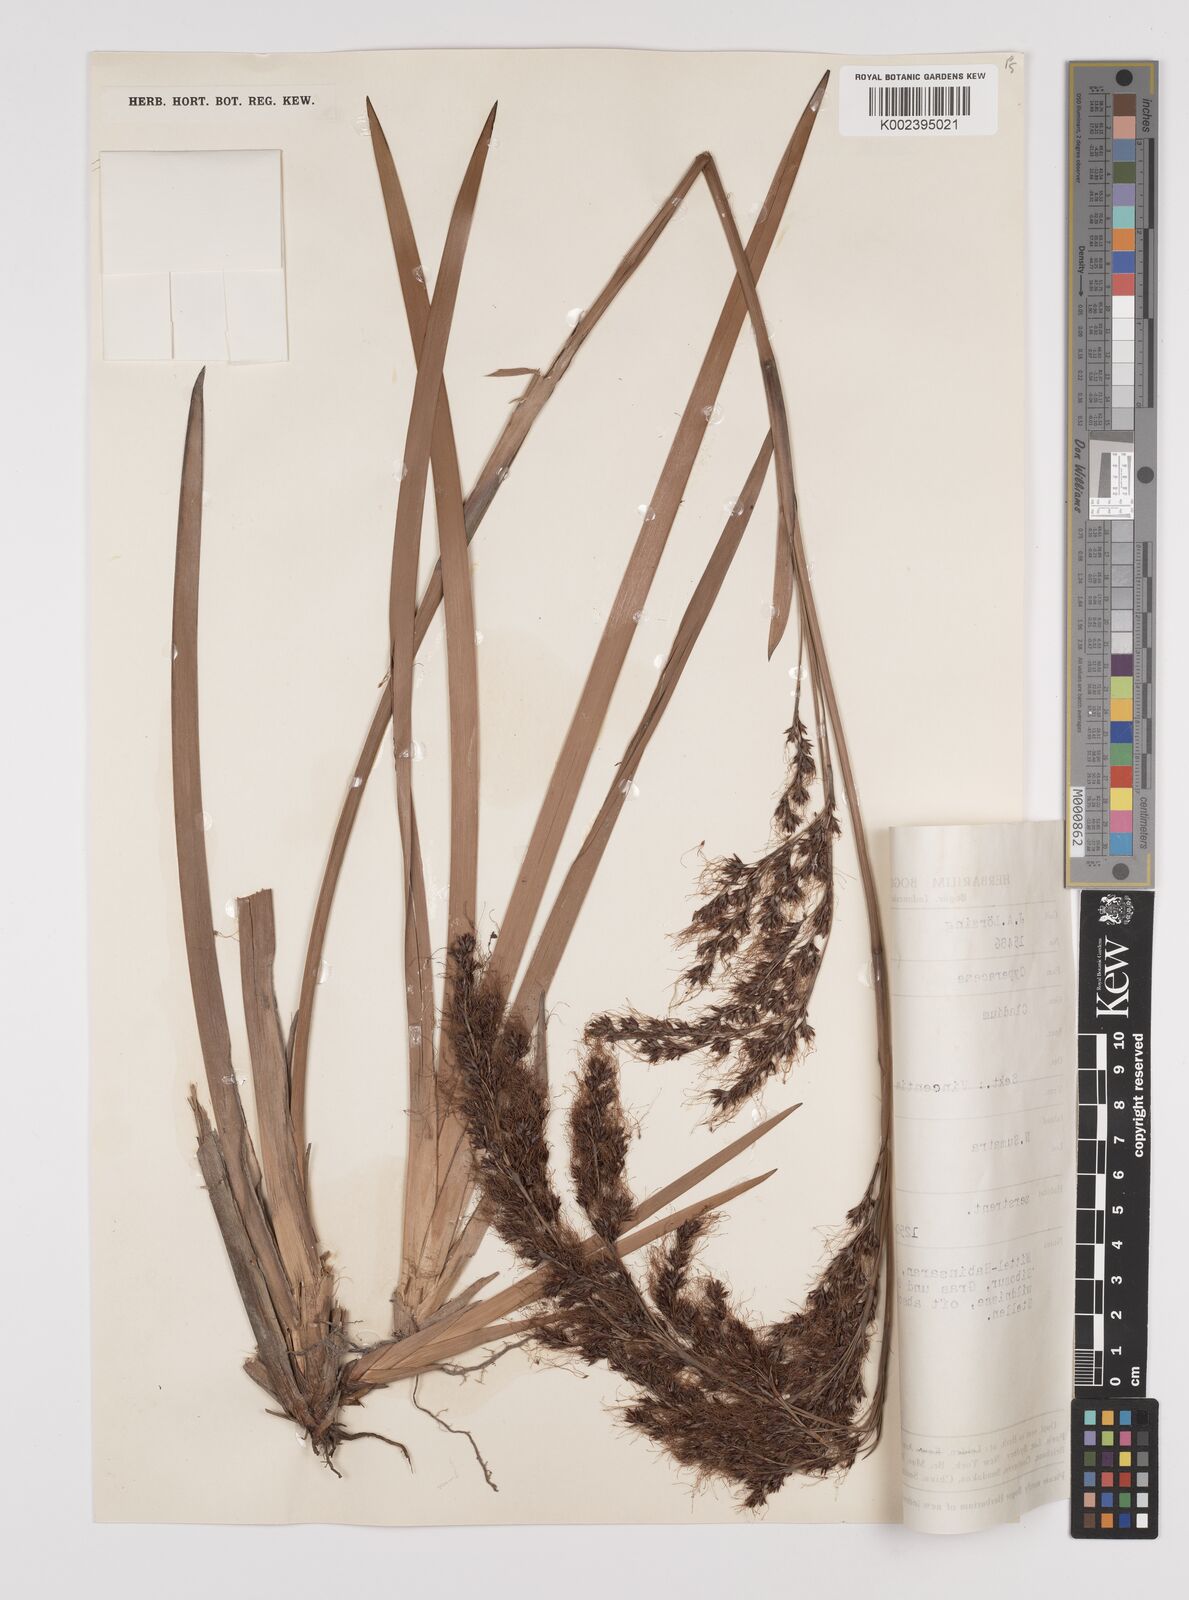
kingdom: Plantae
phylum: Tracheophyta
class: Liliopsida
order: Poales
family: Cyperaceae
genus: Machaerina
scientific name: Machaerina sinclairii
